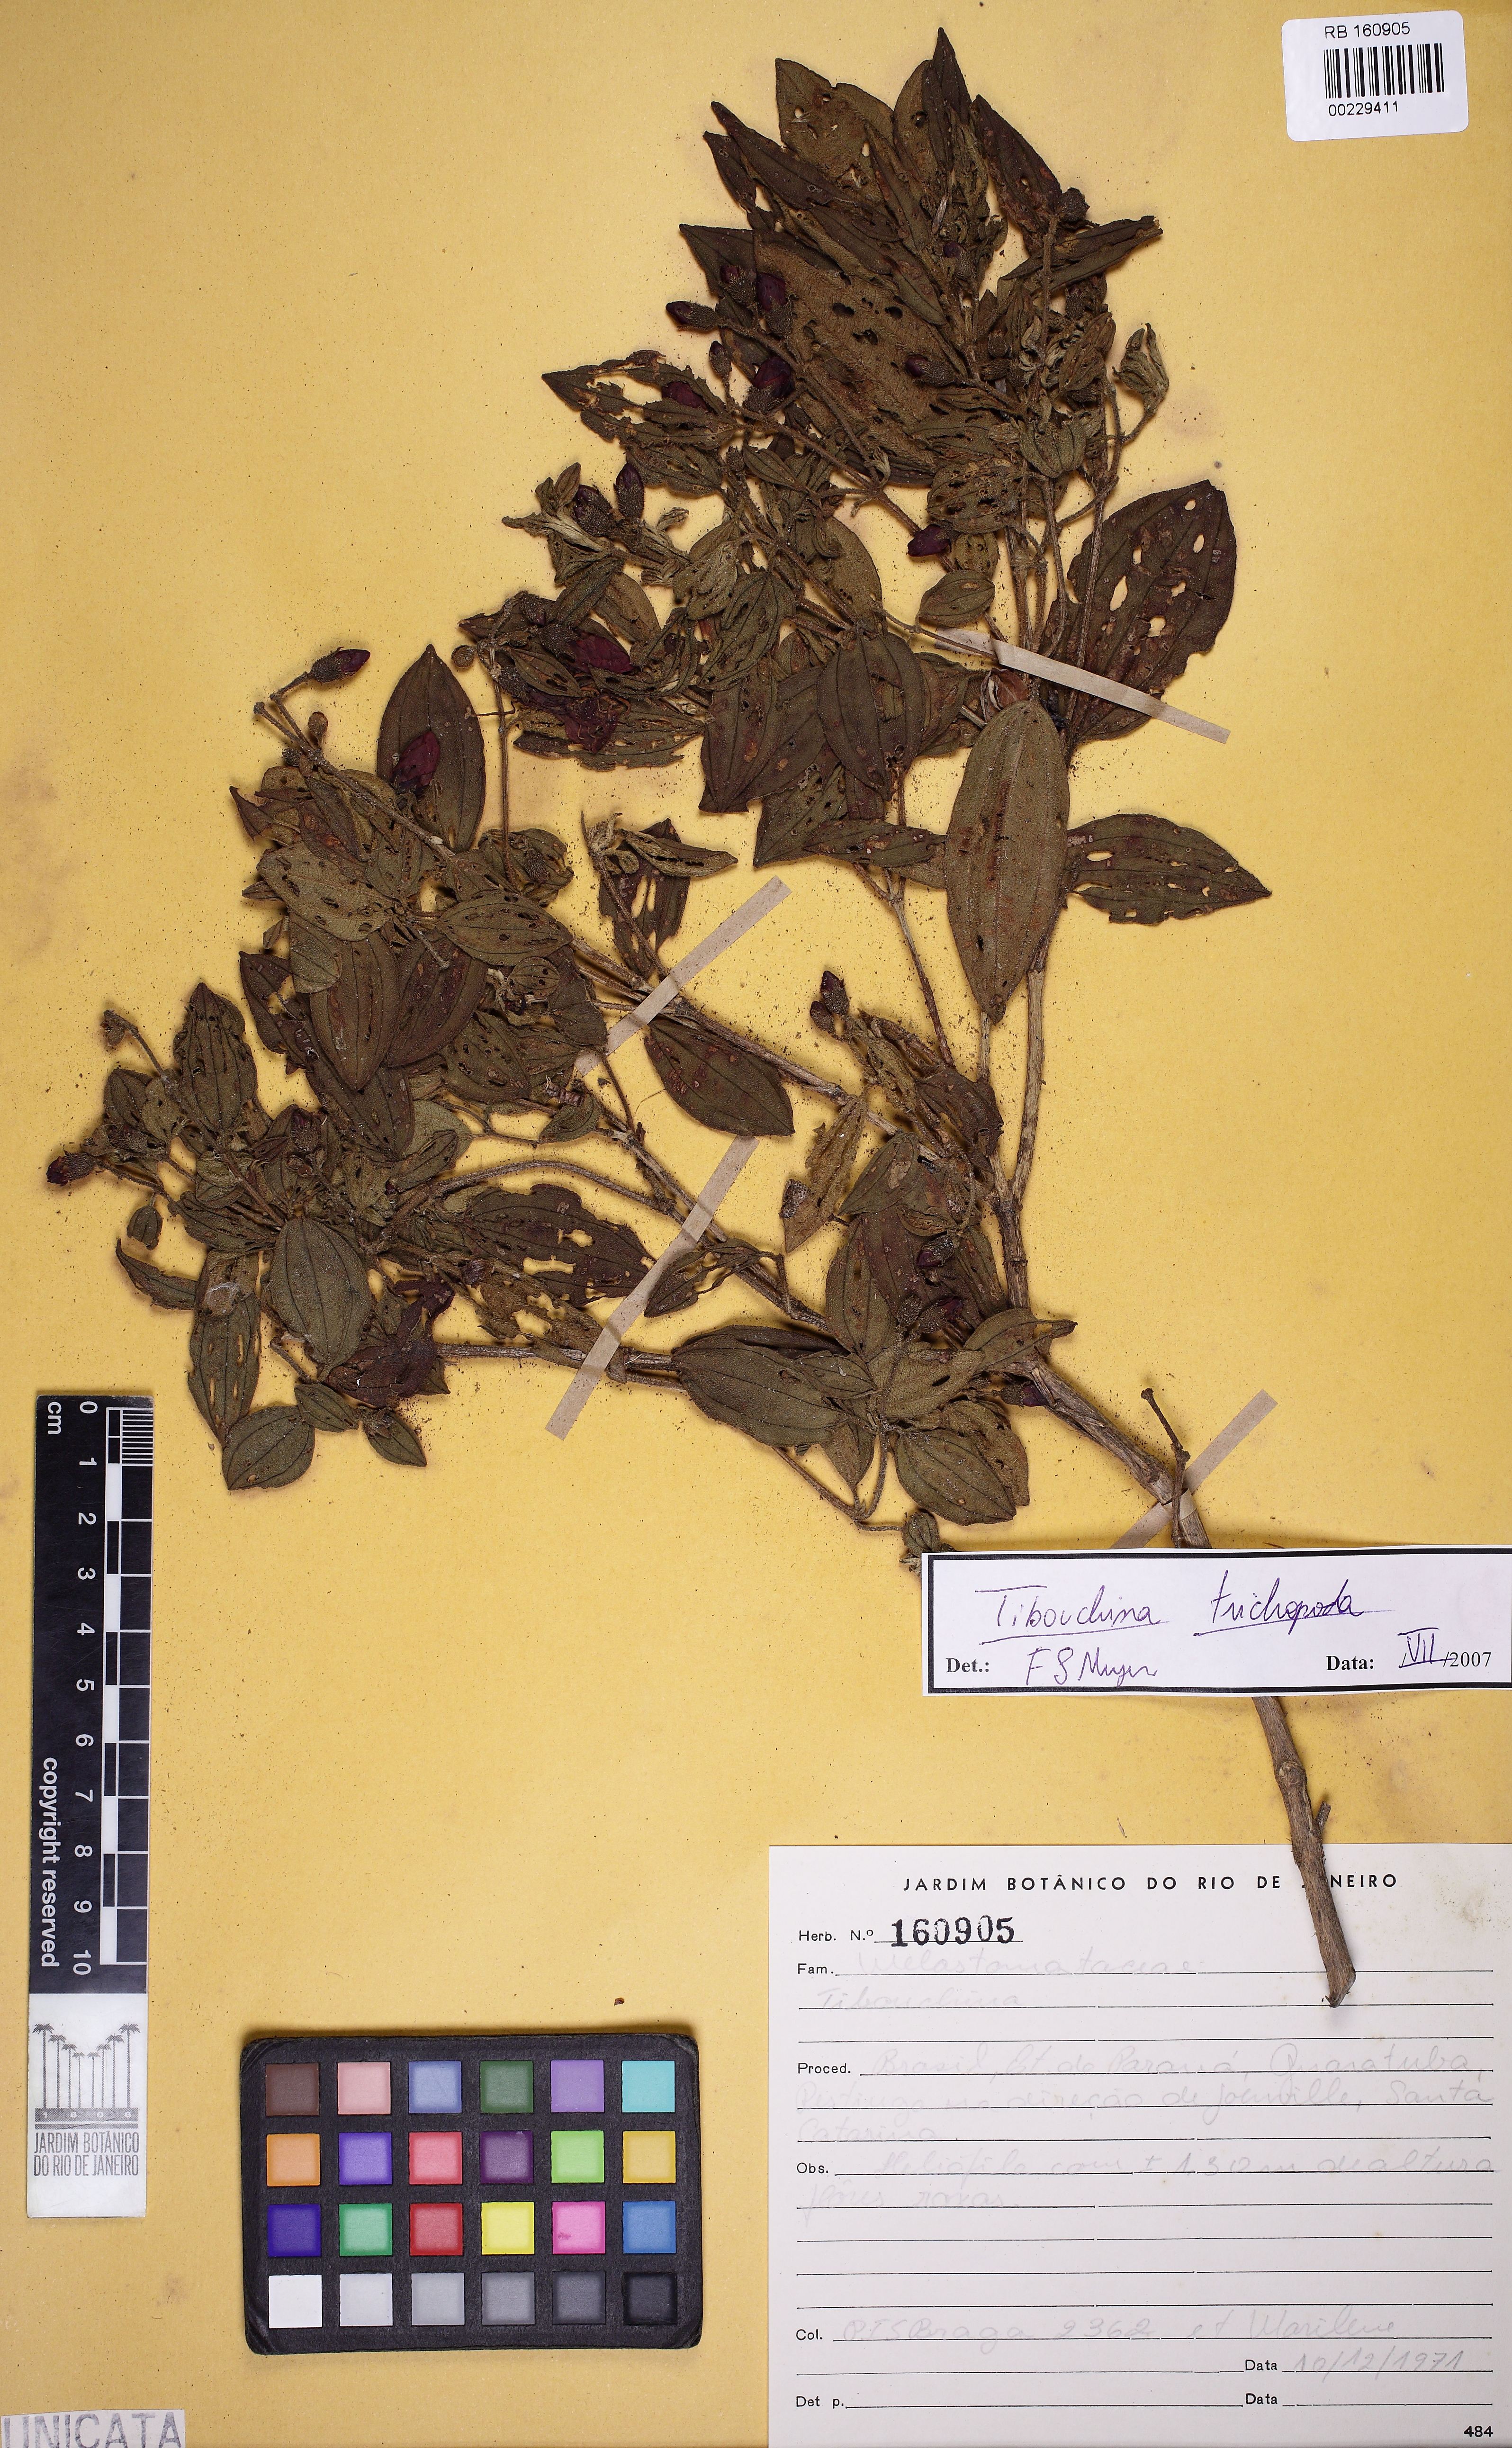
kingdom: Plantae
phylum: Tracheophyta
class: Magnoliopsida
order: Myrtales
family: Melastomataceae
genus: Pleroma
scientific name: Pleroma trichopodum
